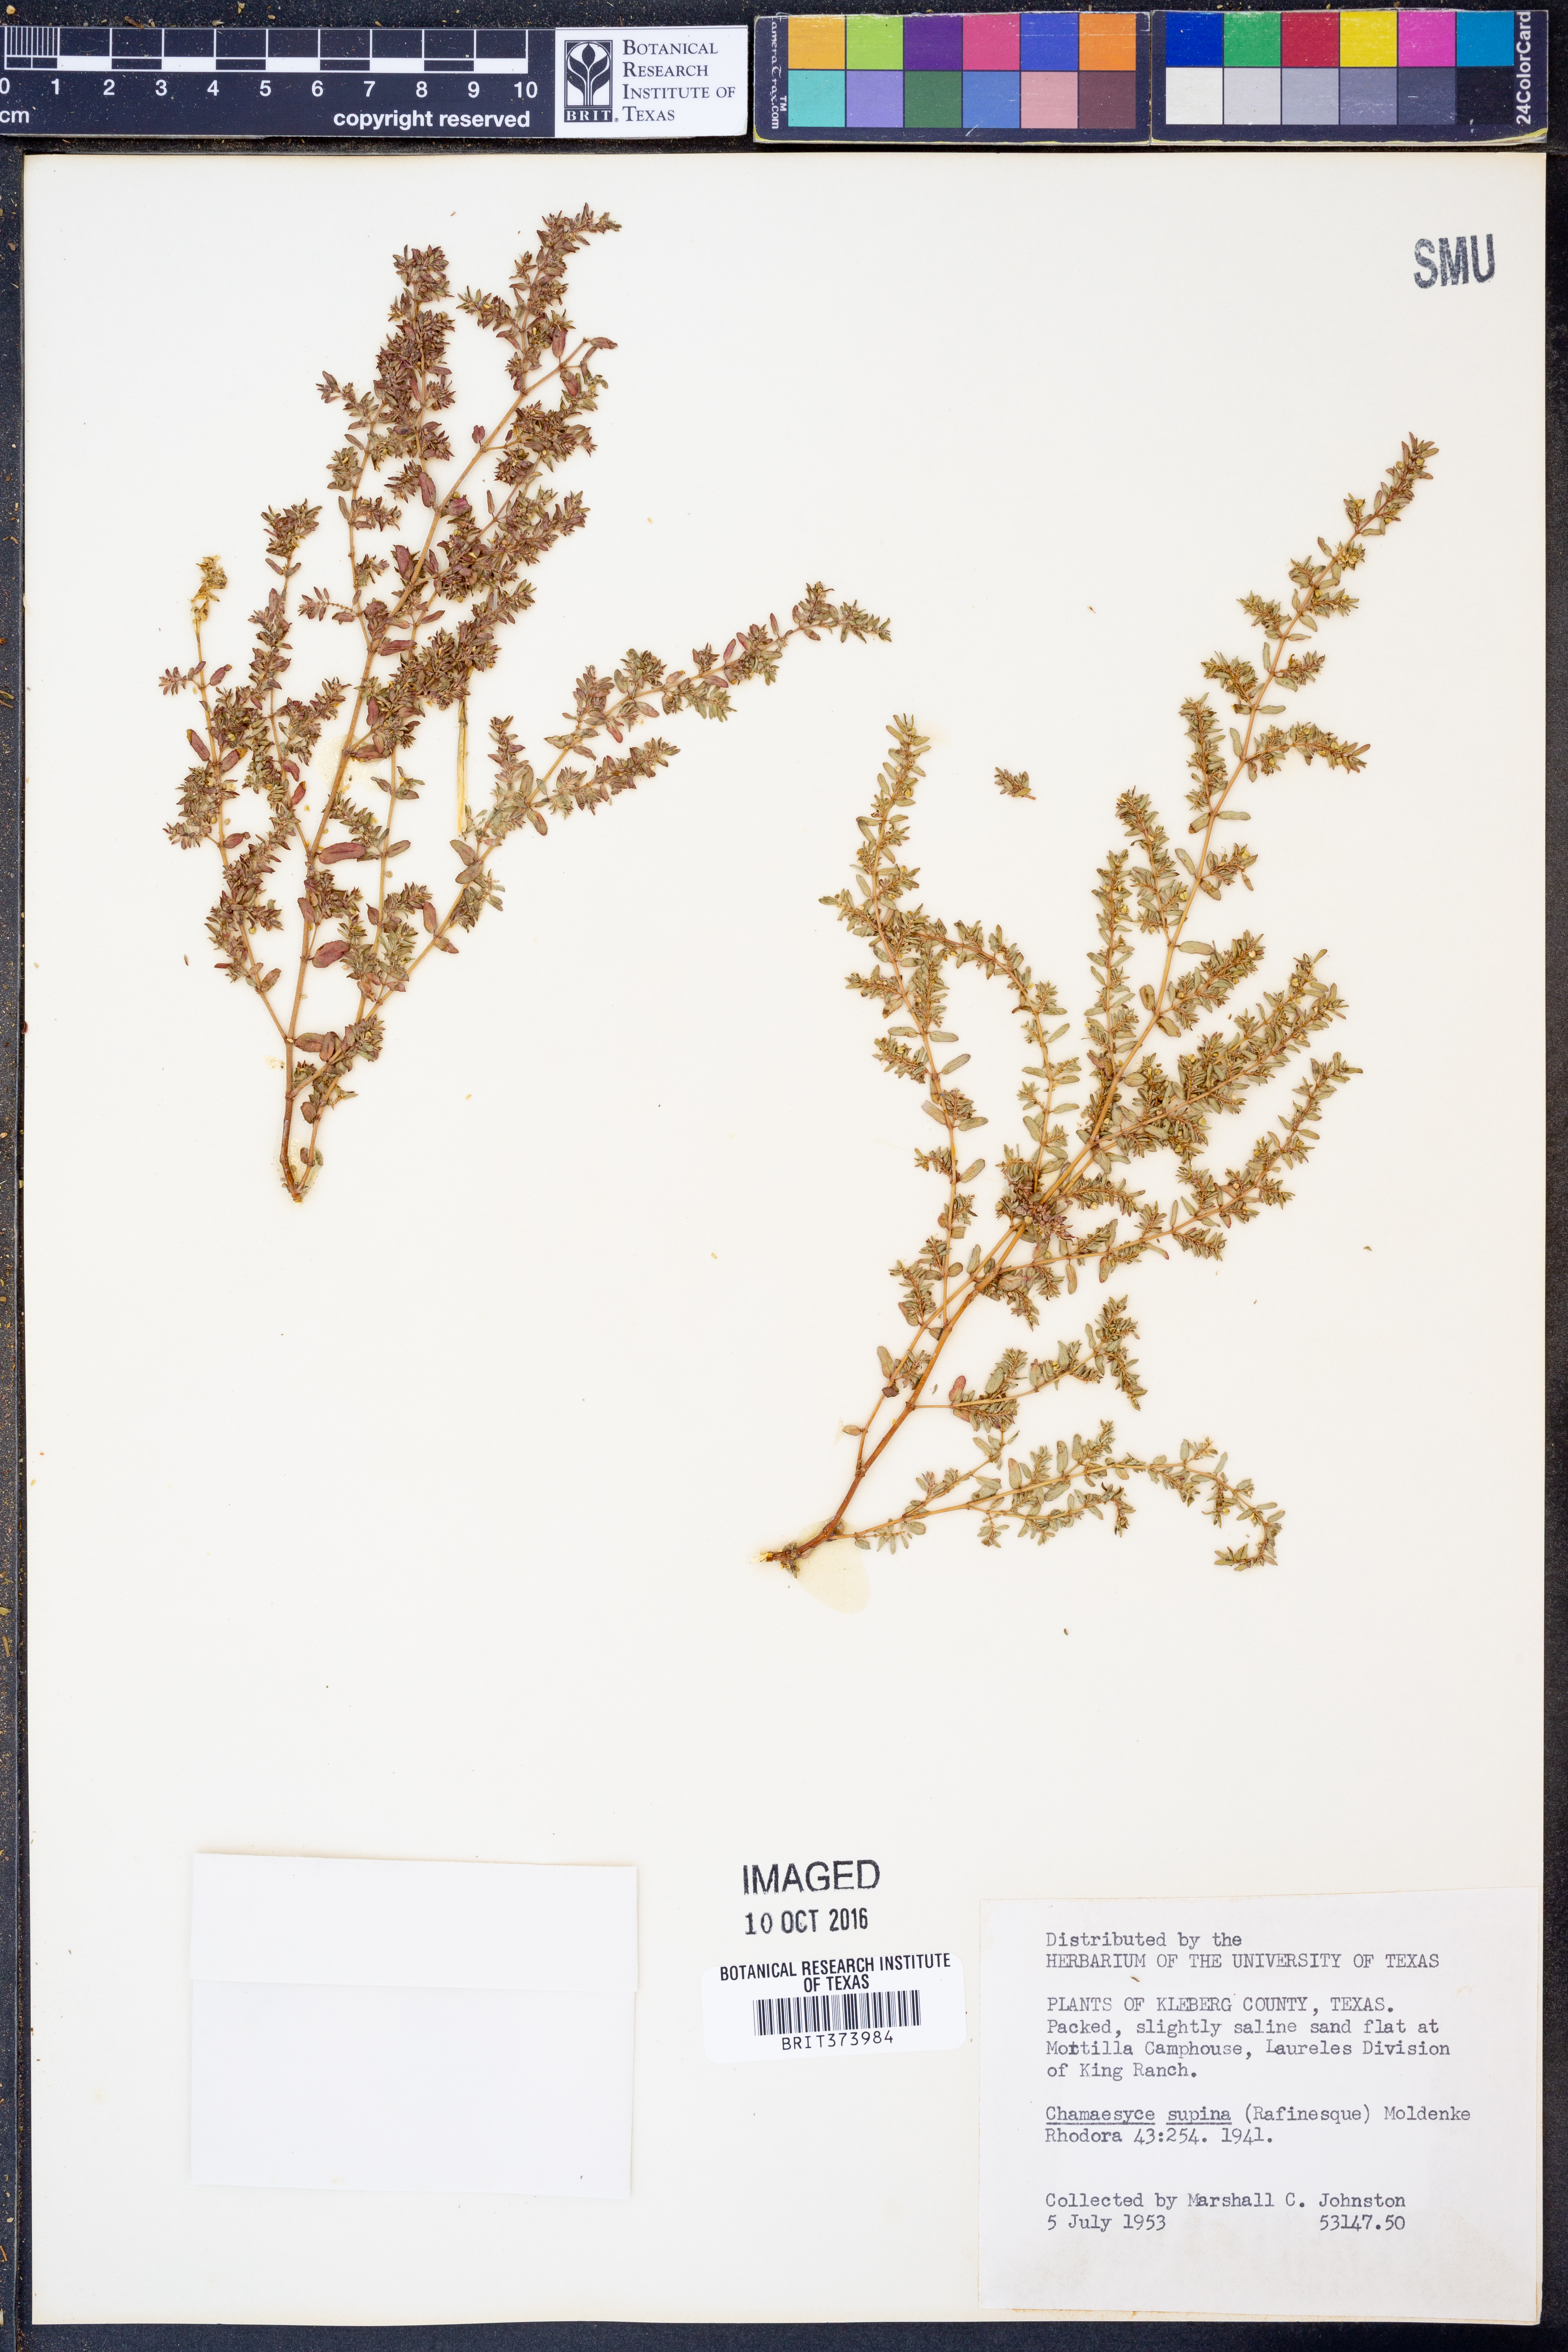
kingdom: Plantae
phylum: Tracheophyta
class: Magnoliopsida
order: Malpighiales
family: Euphorbiaceae
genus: Euphorbia
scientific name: Euphorbia maculata
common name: Spotted spurge
